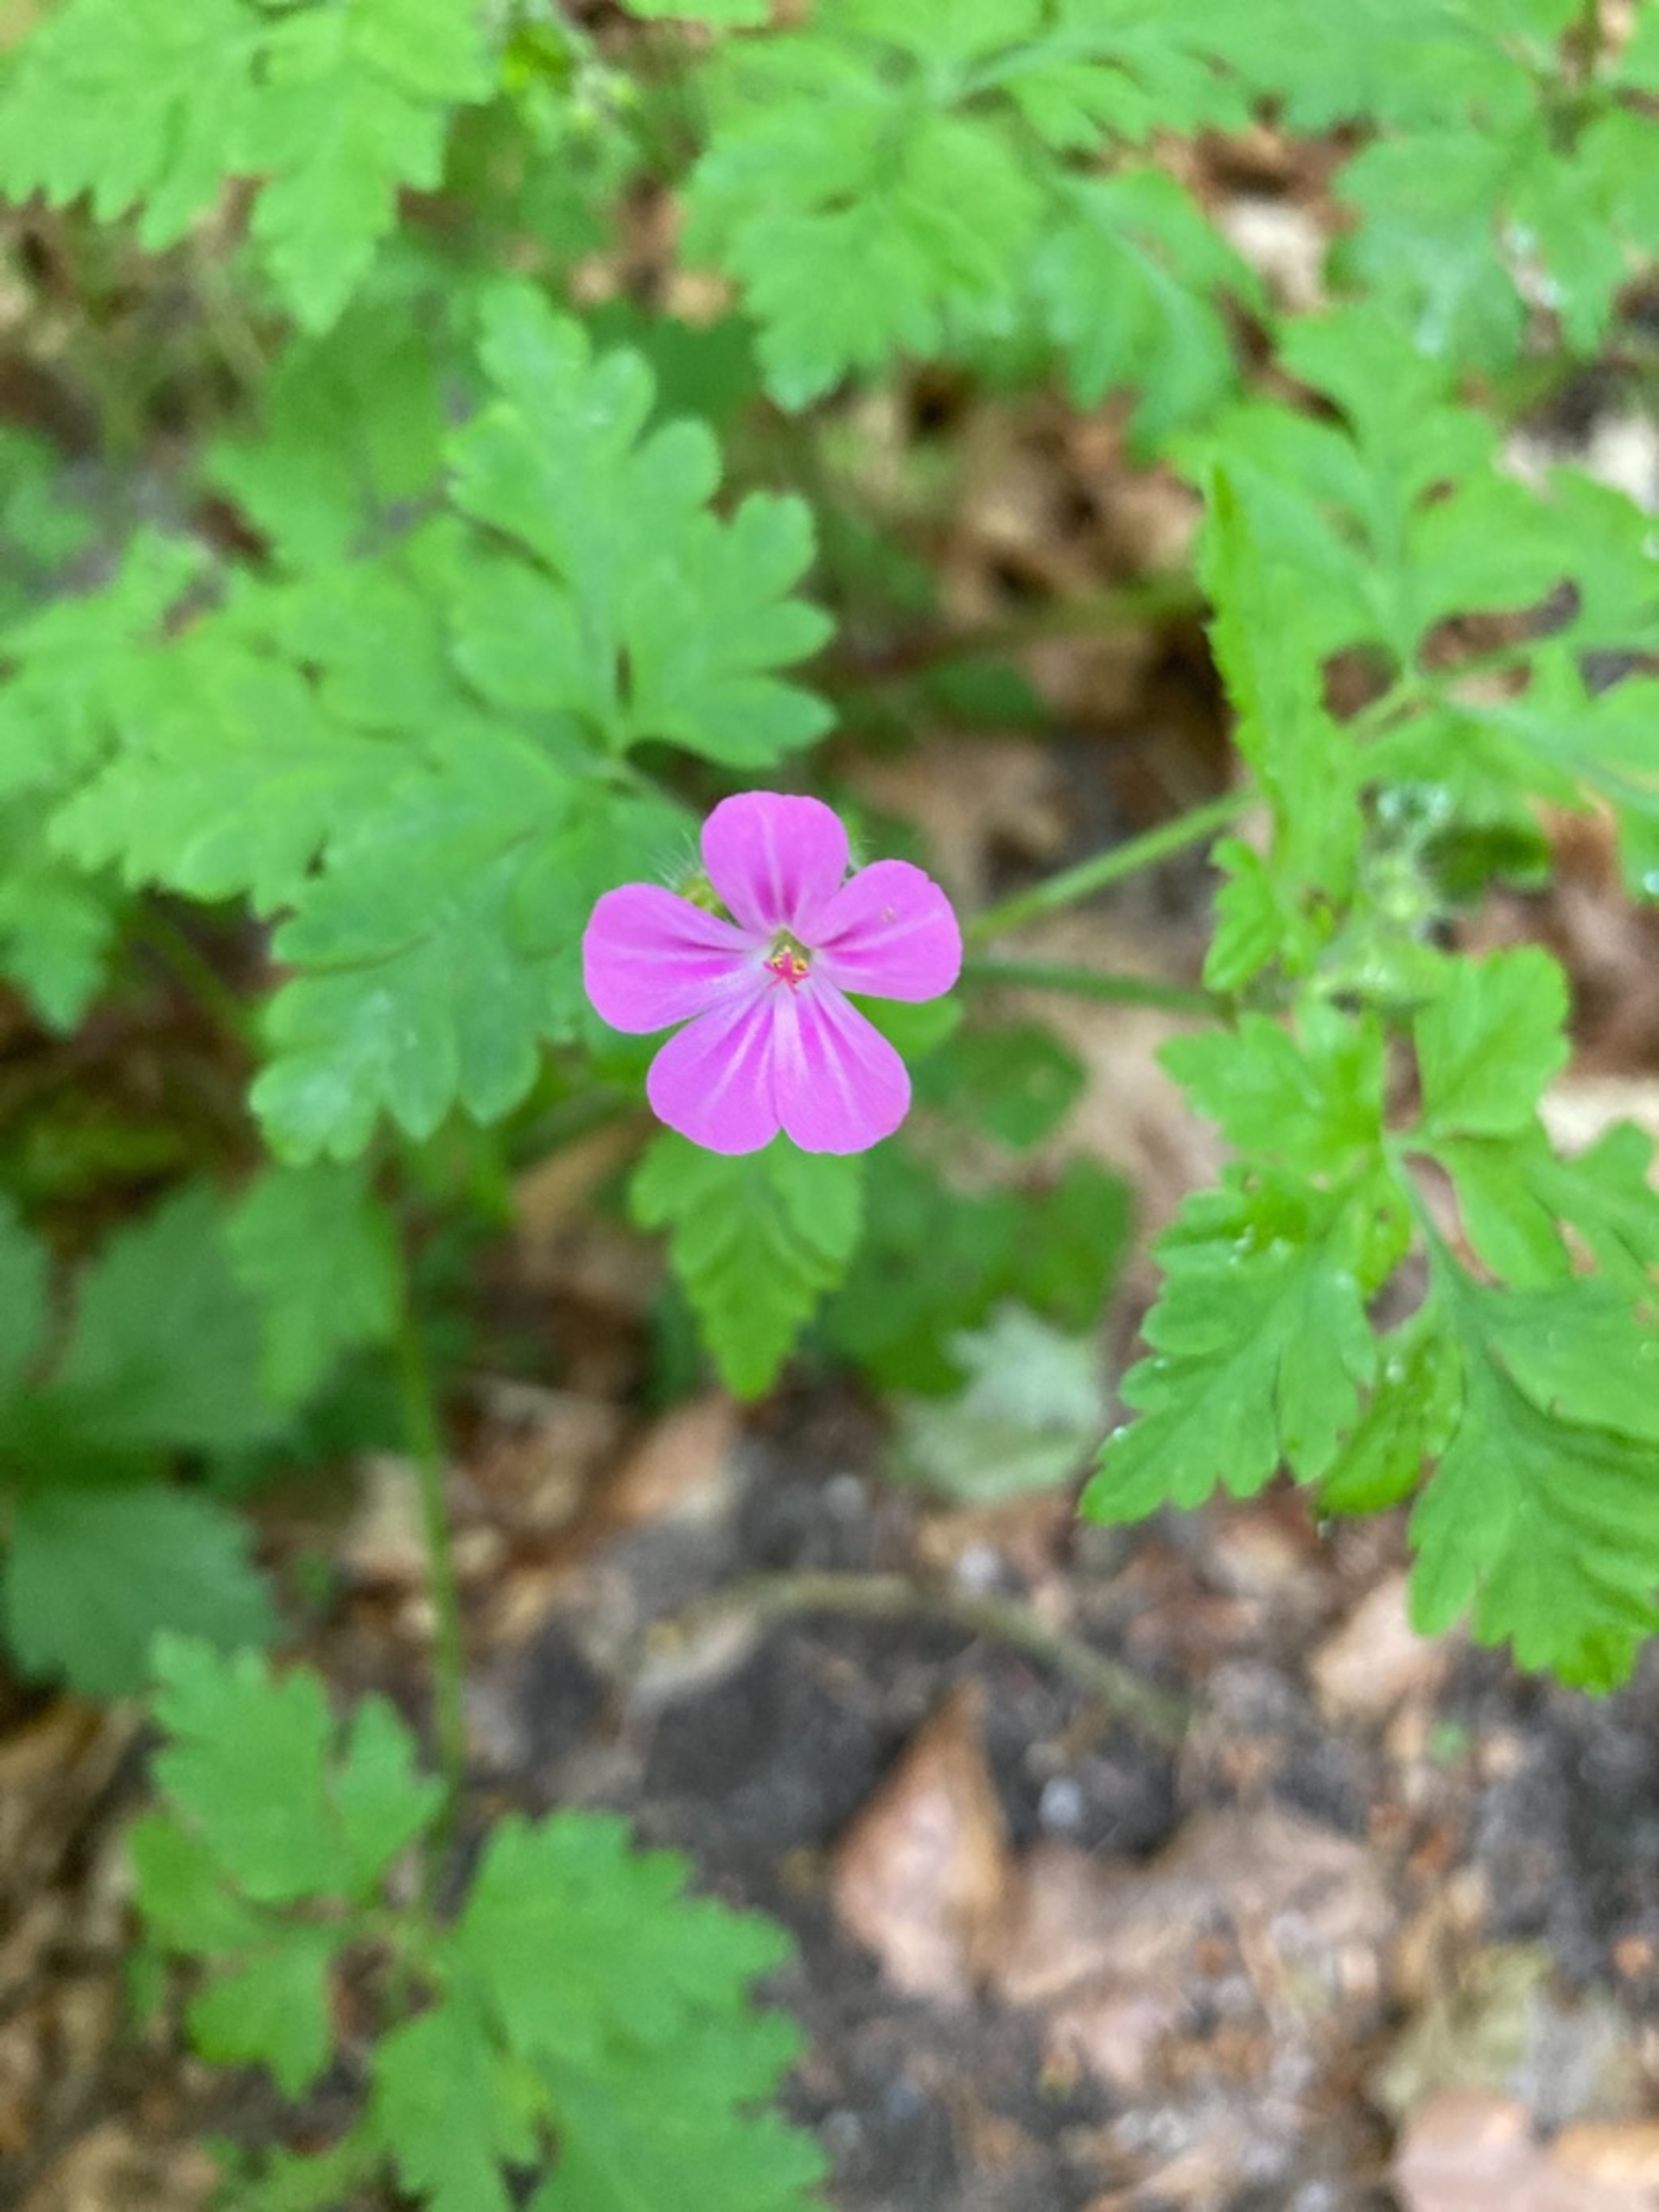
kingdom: Plantae
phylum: Tracheophyta
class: Magnoliopsida
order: Geraniales
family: Geraniaceae
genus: Geranium
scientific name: Geranium robertianum
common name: Stinkende storkenæb
